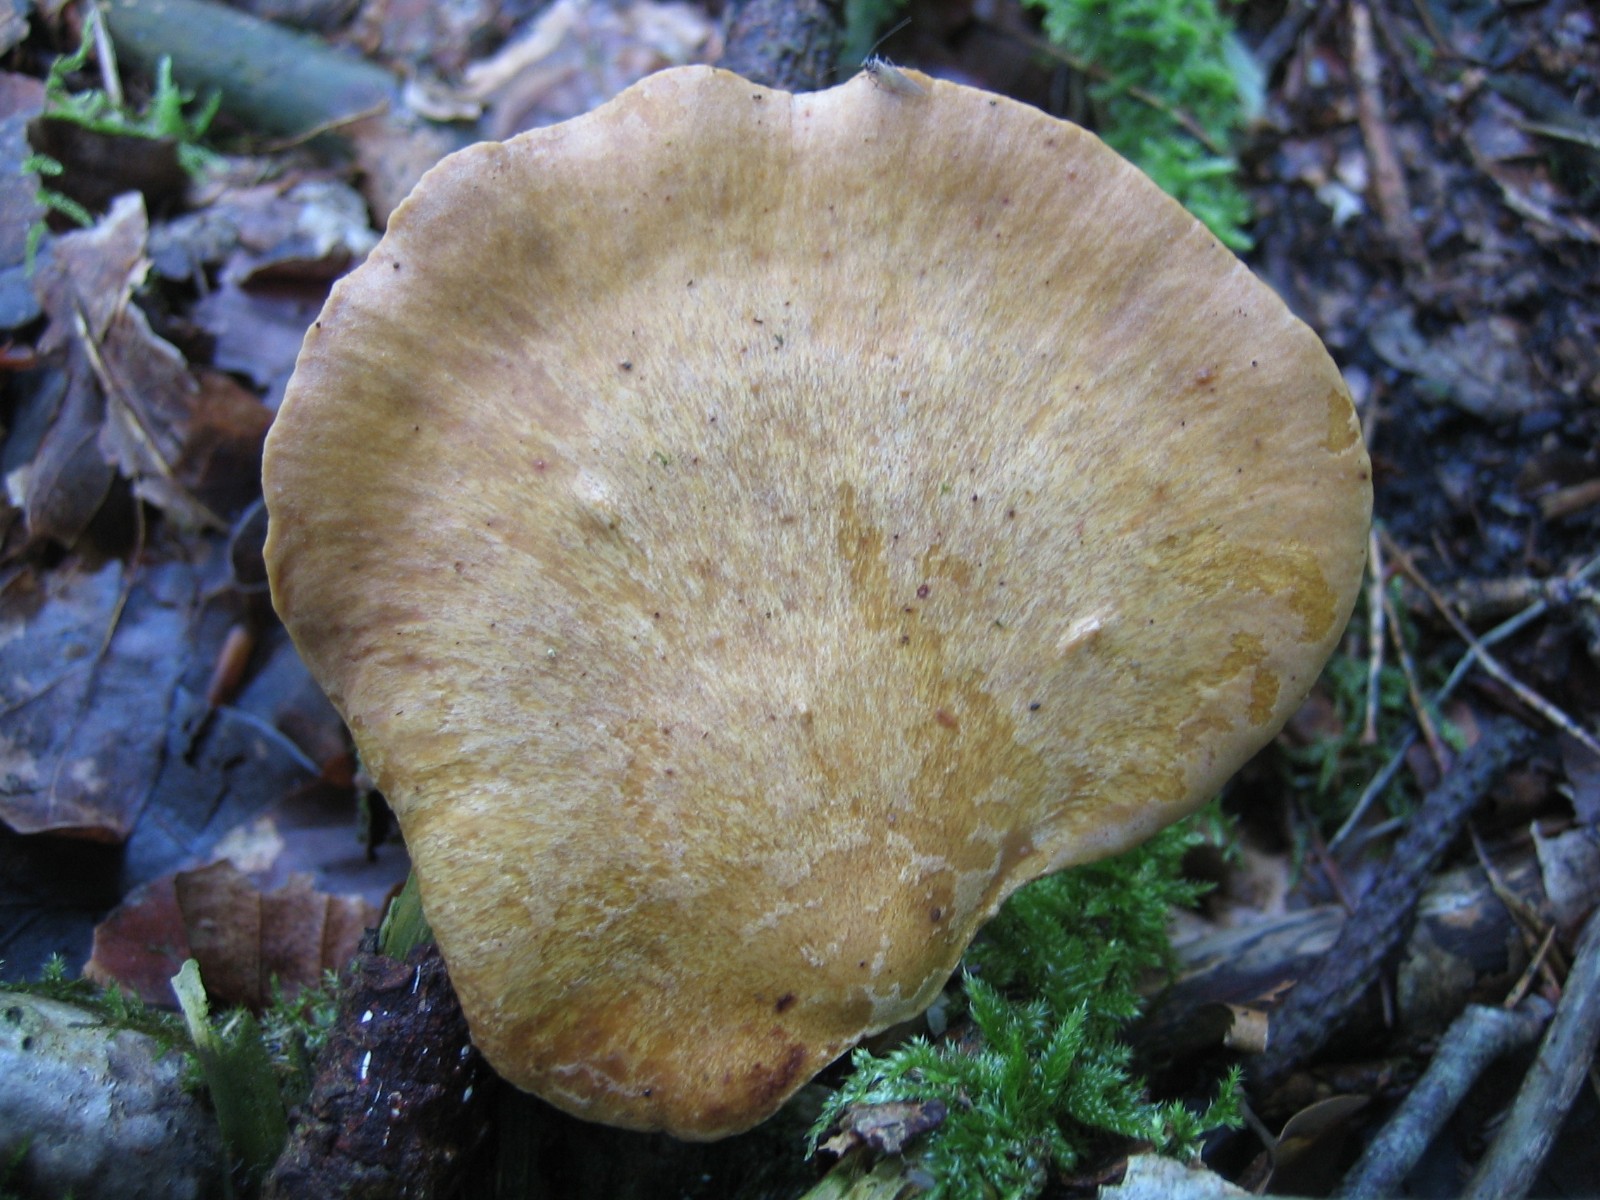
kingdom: Fungi
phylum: Basidiomycota
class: Agaricomycetes
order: Polyporales
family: Polyporaceae
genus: Cerioporus
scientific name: Cerioporus varius
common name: foranderlig stilkporesvamp
